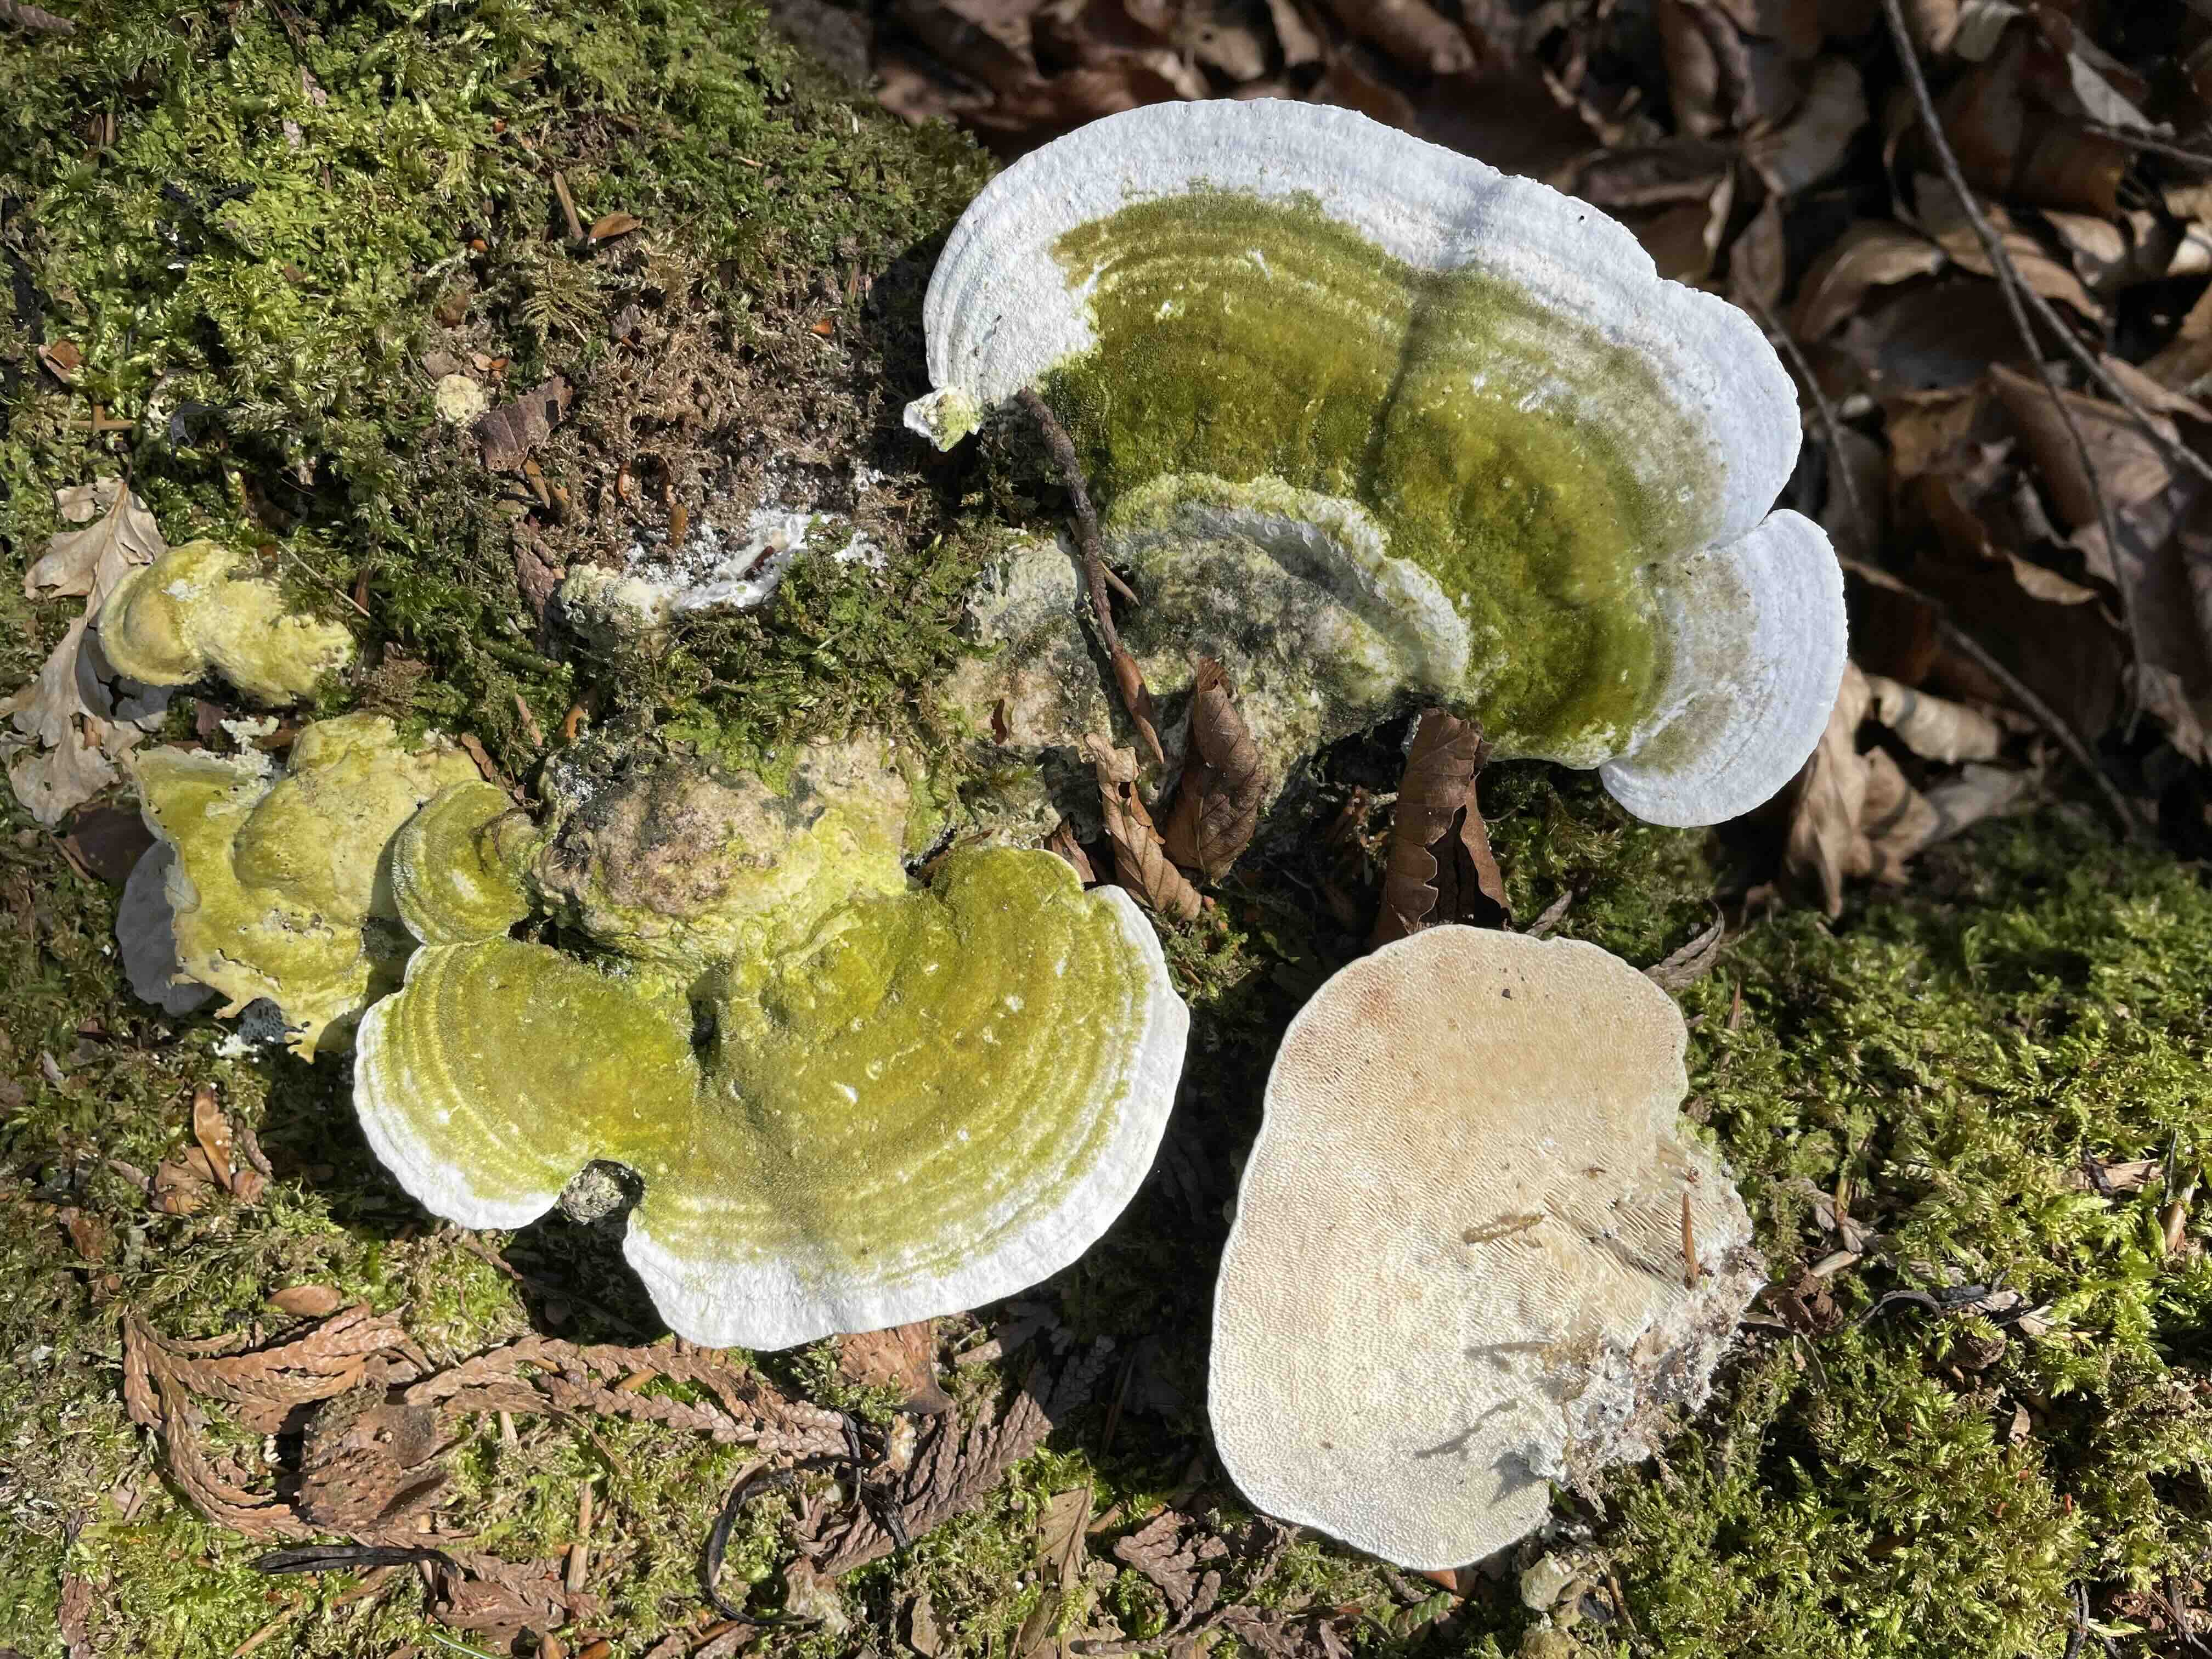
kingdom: Fungi
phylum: Basidiomycota
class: Agaricomycetes
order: Polyporales
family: Polyporaceae
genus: Trametes
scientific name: Trametes gibbosa
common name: puklet læderporesvamp
